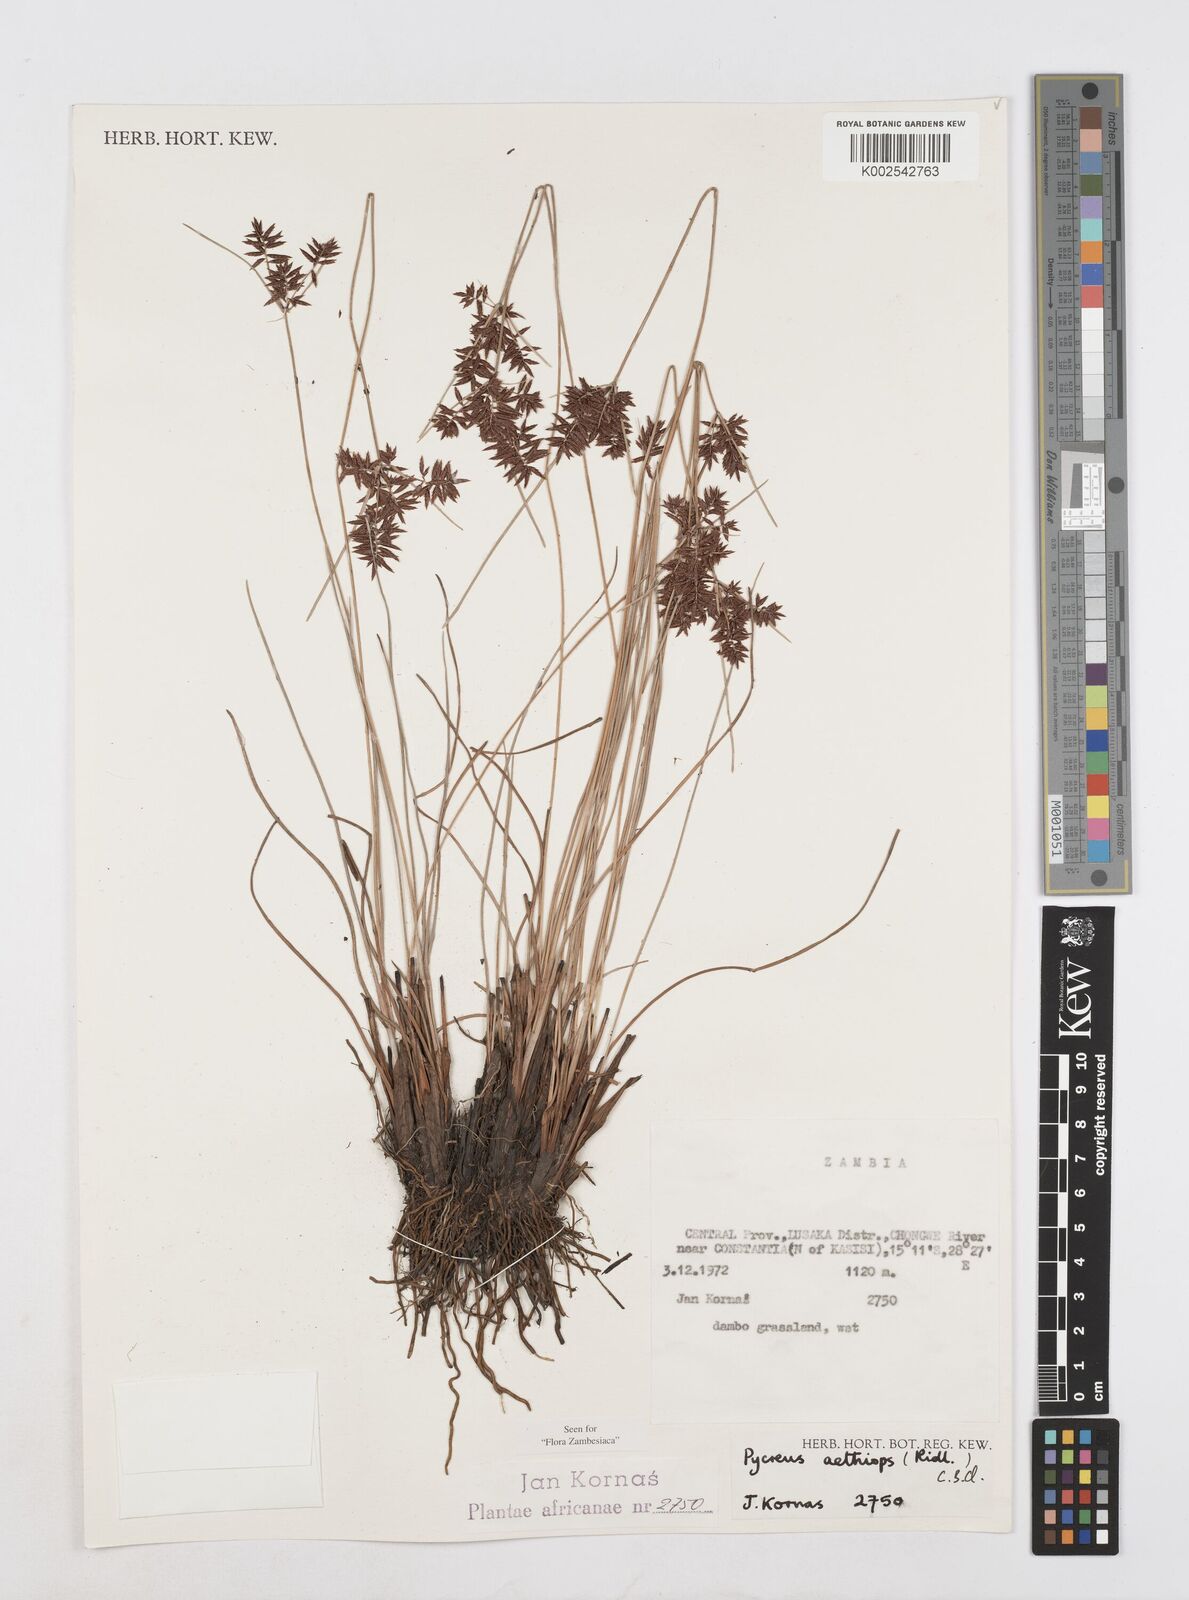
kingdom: Plantae
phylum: Tracheophyta
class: Liliopsida
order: Poales
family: Cyperaceae
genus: Cyperus
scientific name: Cyperus aethiops
